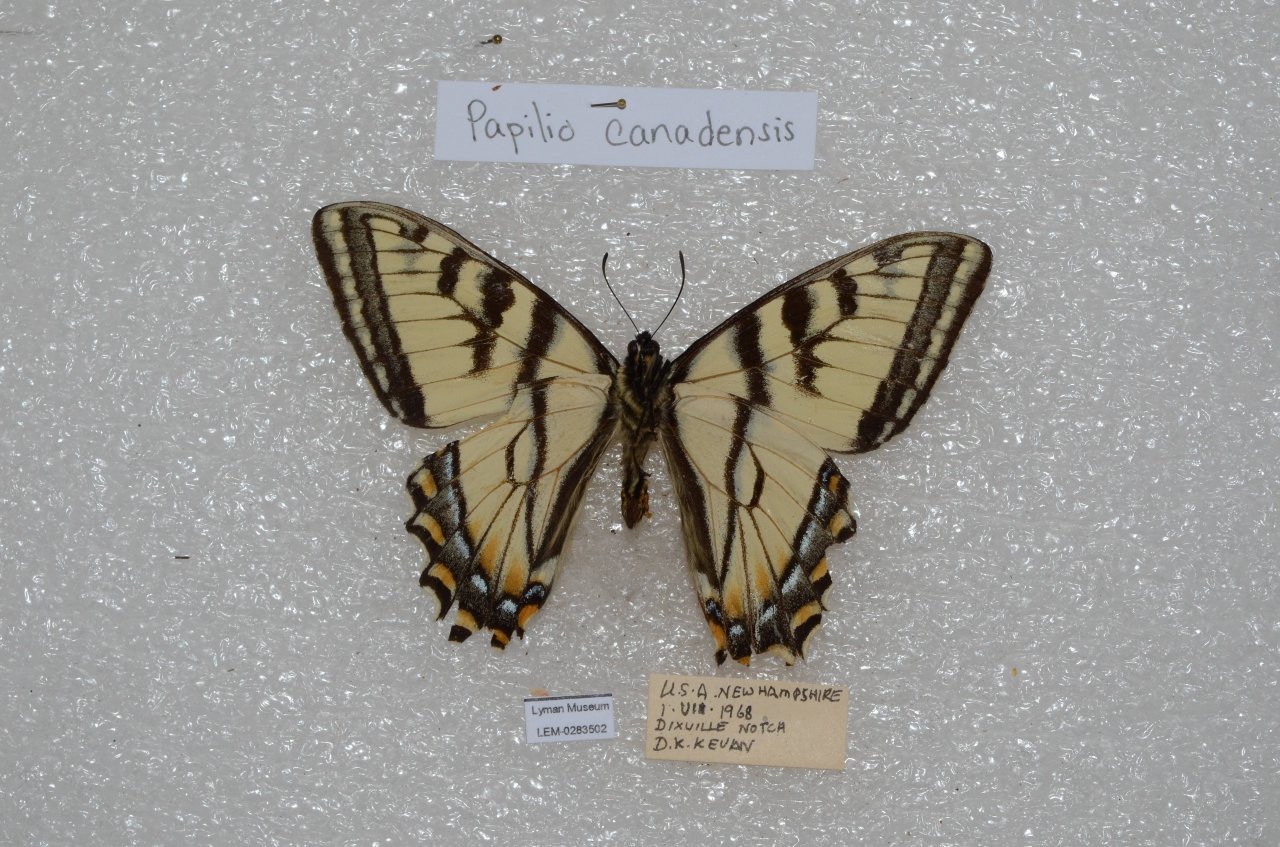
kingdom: Animalia
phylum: Arthropoda
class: Insecta
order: Lepidoptera
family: Papilionidae
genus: Pterourus
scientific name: Pterourus canadensis
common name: Canadian Tiger Swallowtail
